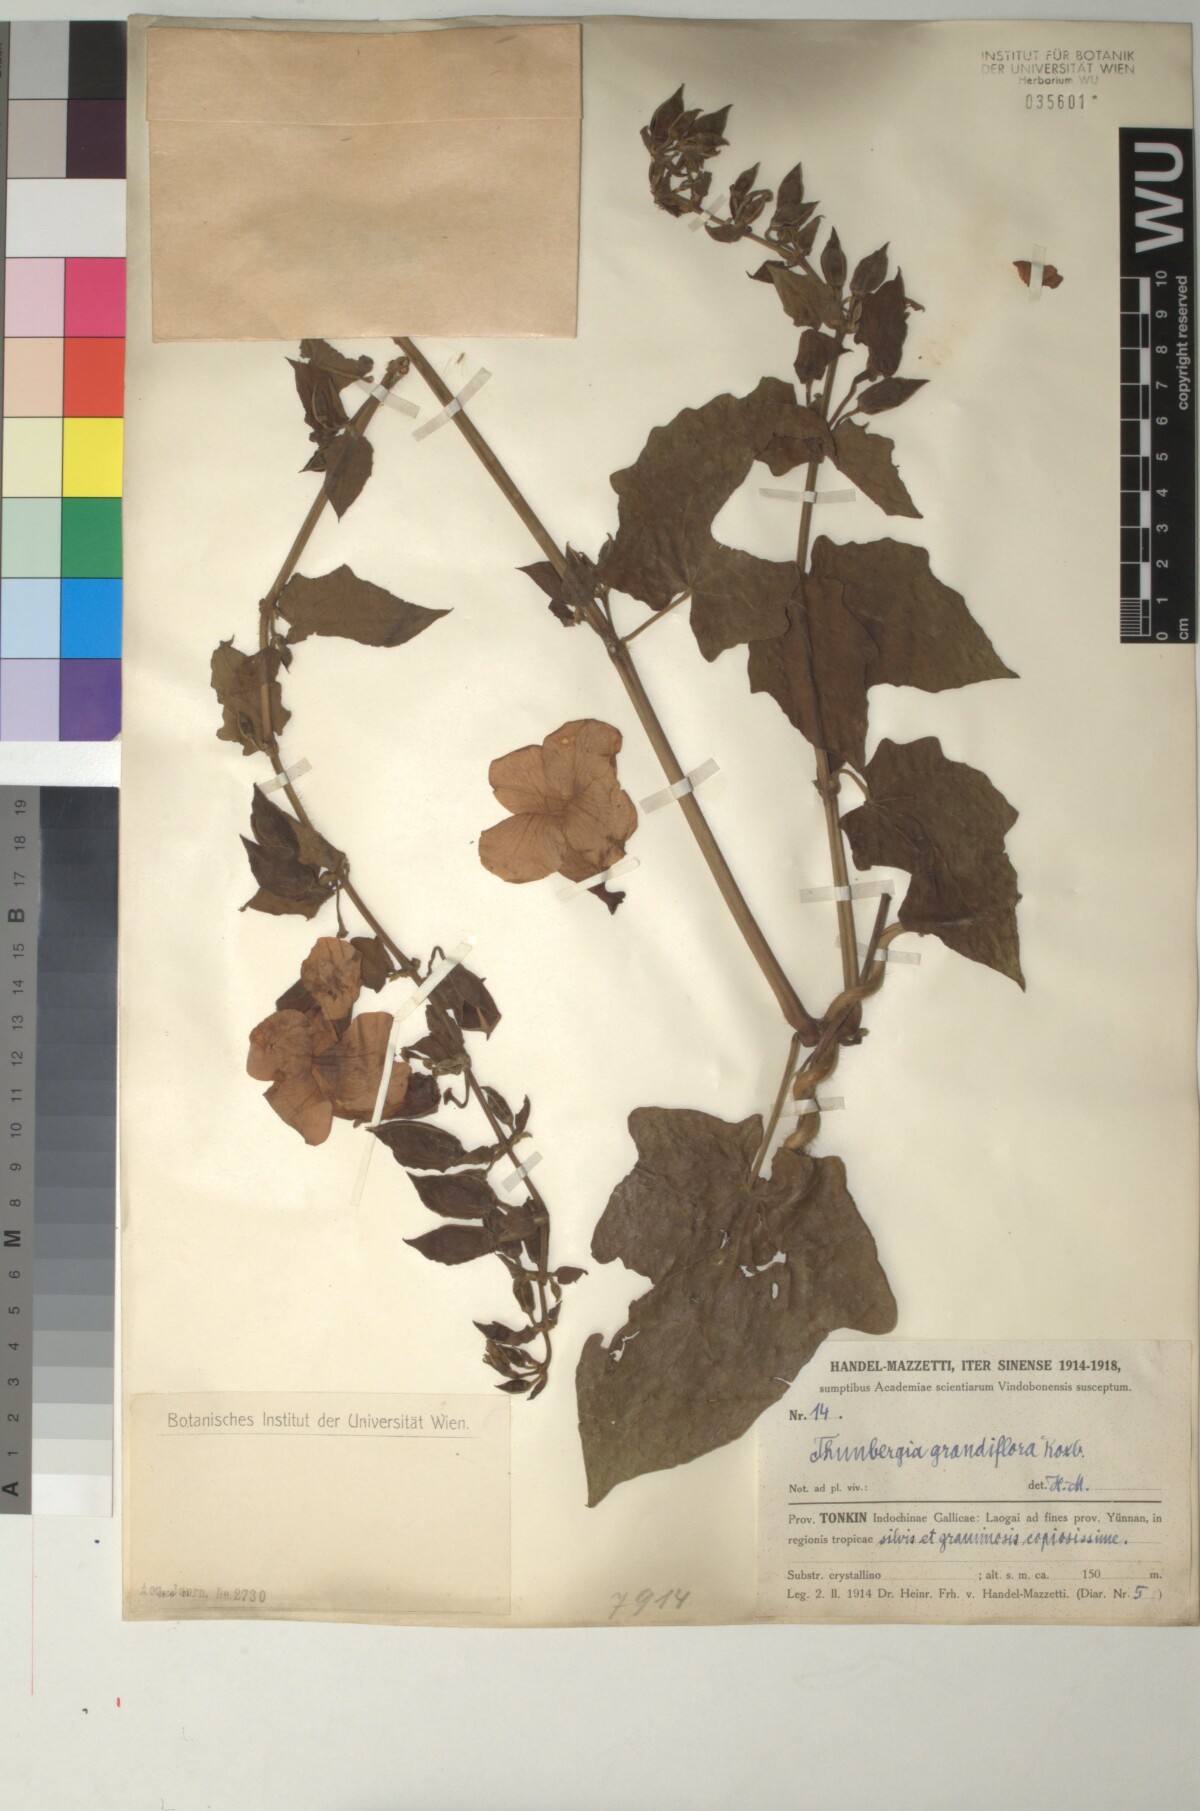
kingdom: Plantae
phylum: Tracheophyta
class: Magnoliopsida
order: Lamiales
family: Acanthaceae
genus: Thunbergia
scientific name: Thunbergia grandiflora
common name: Bengal trumpet
